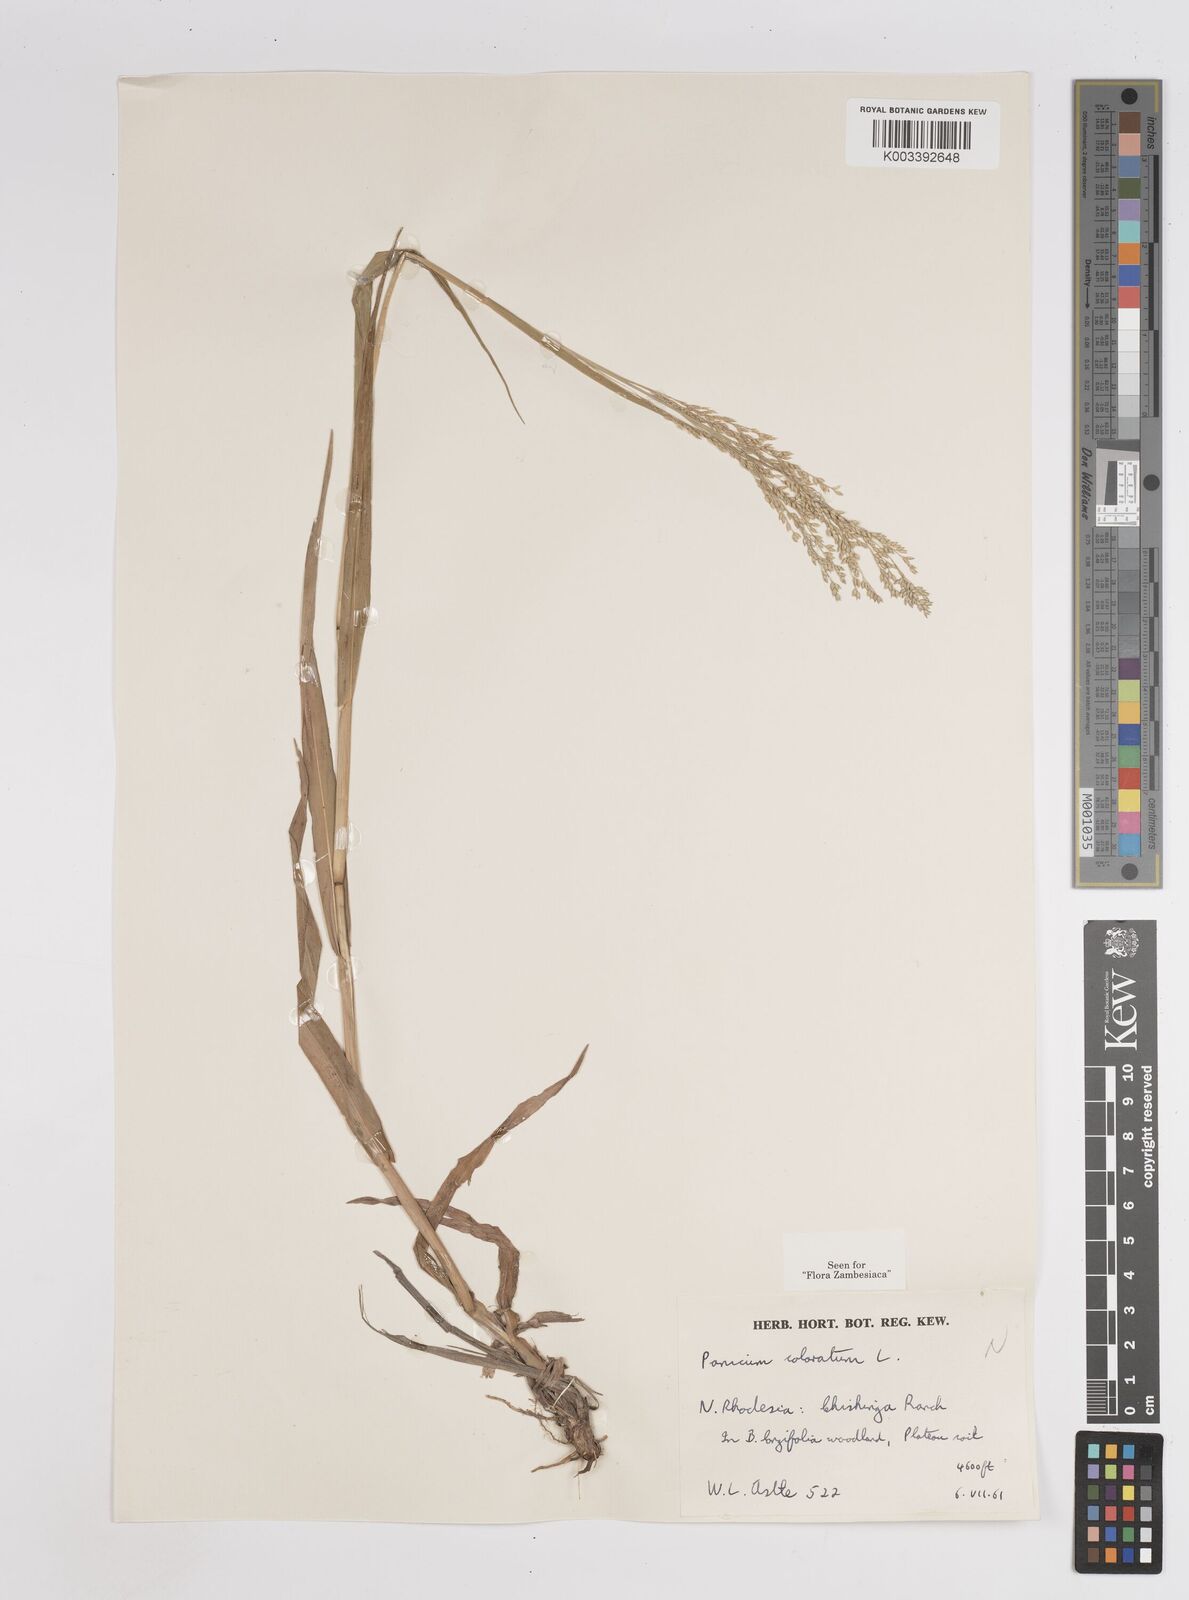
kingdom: Plantae
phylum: Tracheophyta
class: Liliopsida
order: Poales
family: Poaceae
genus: Panicum
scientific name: Panicum
